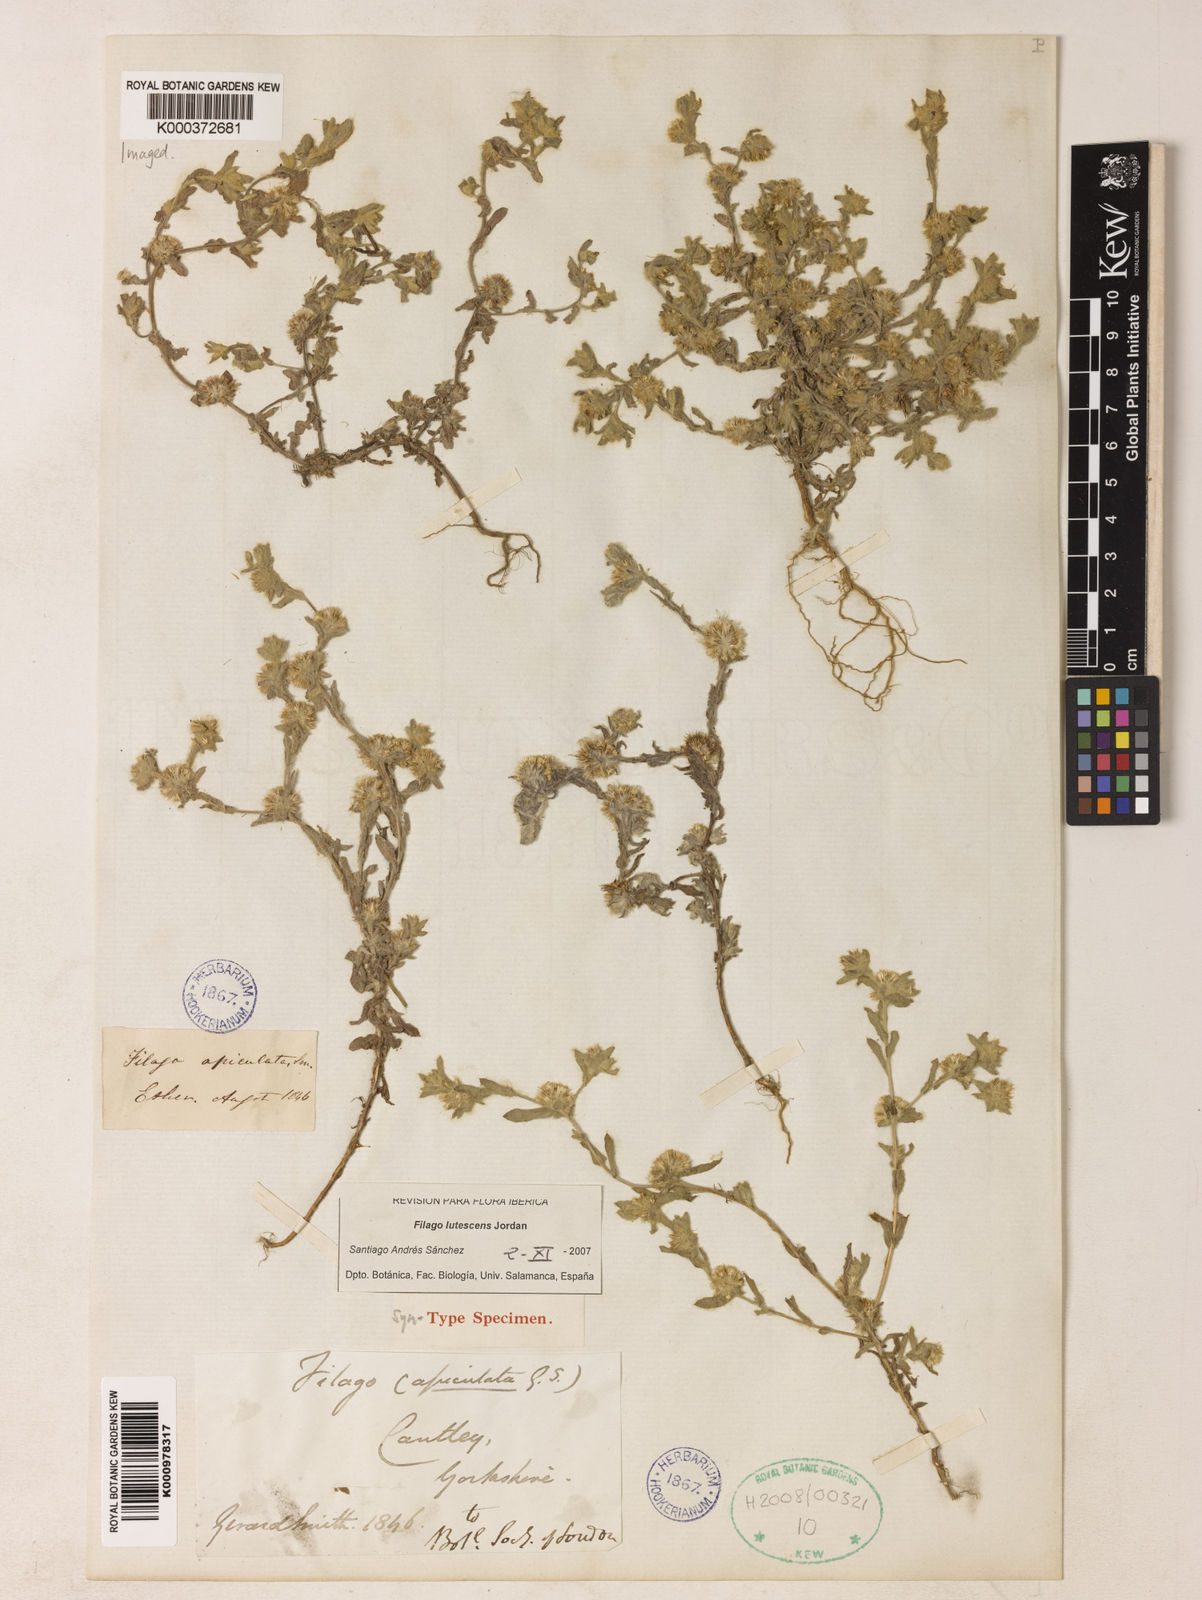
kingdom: Plantae
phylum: Tracheophyta
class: Magnoliopsida
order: Asterales
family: Asteraceae
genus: Filago
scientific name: Filago lutescens
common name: Red-tipped cudweed
